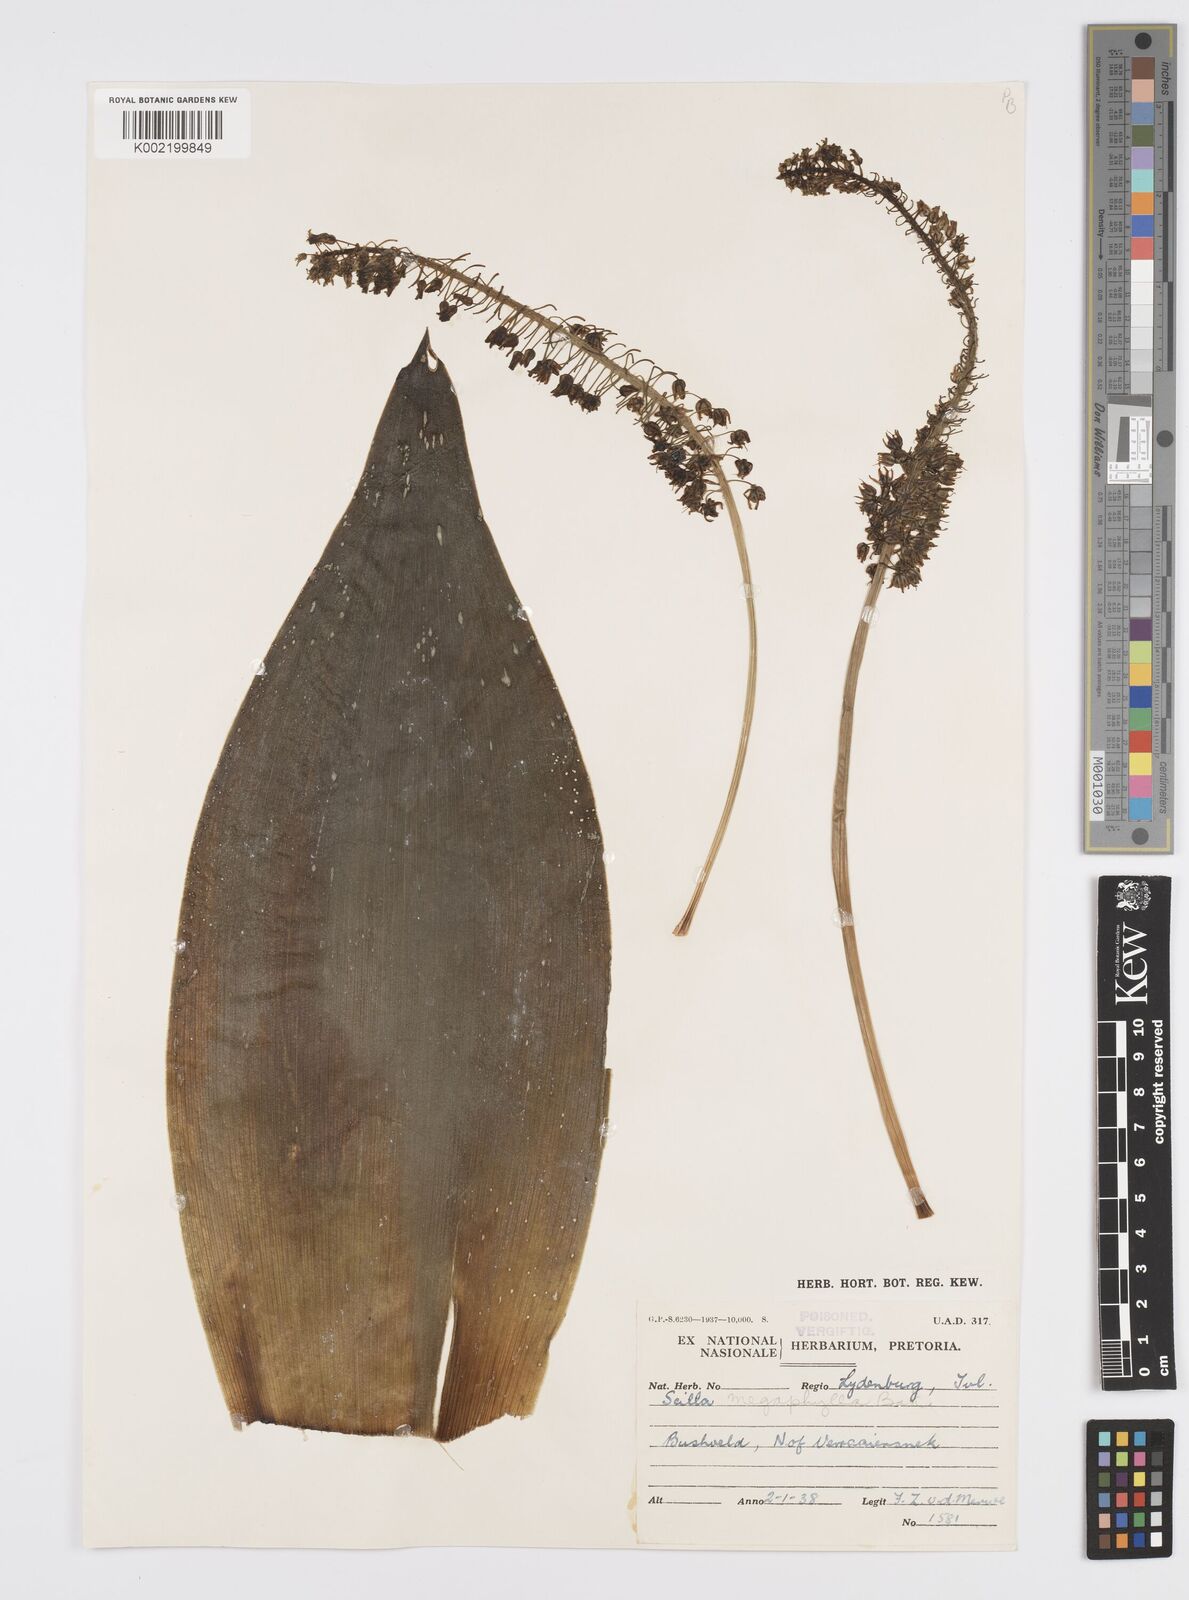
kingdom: Plantae
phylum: Tracheophyta
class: Liliopsida
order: Asparagales
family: Asparagaceae
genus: Ledebouria
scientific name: Ledebouria floribunda
